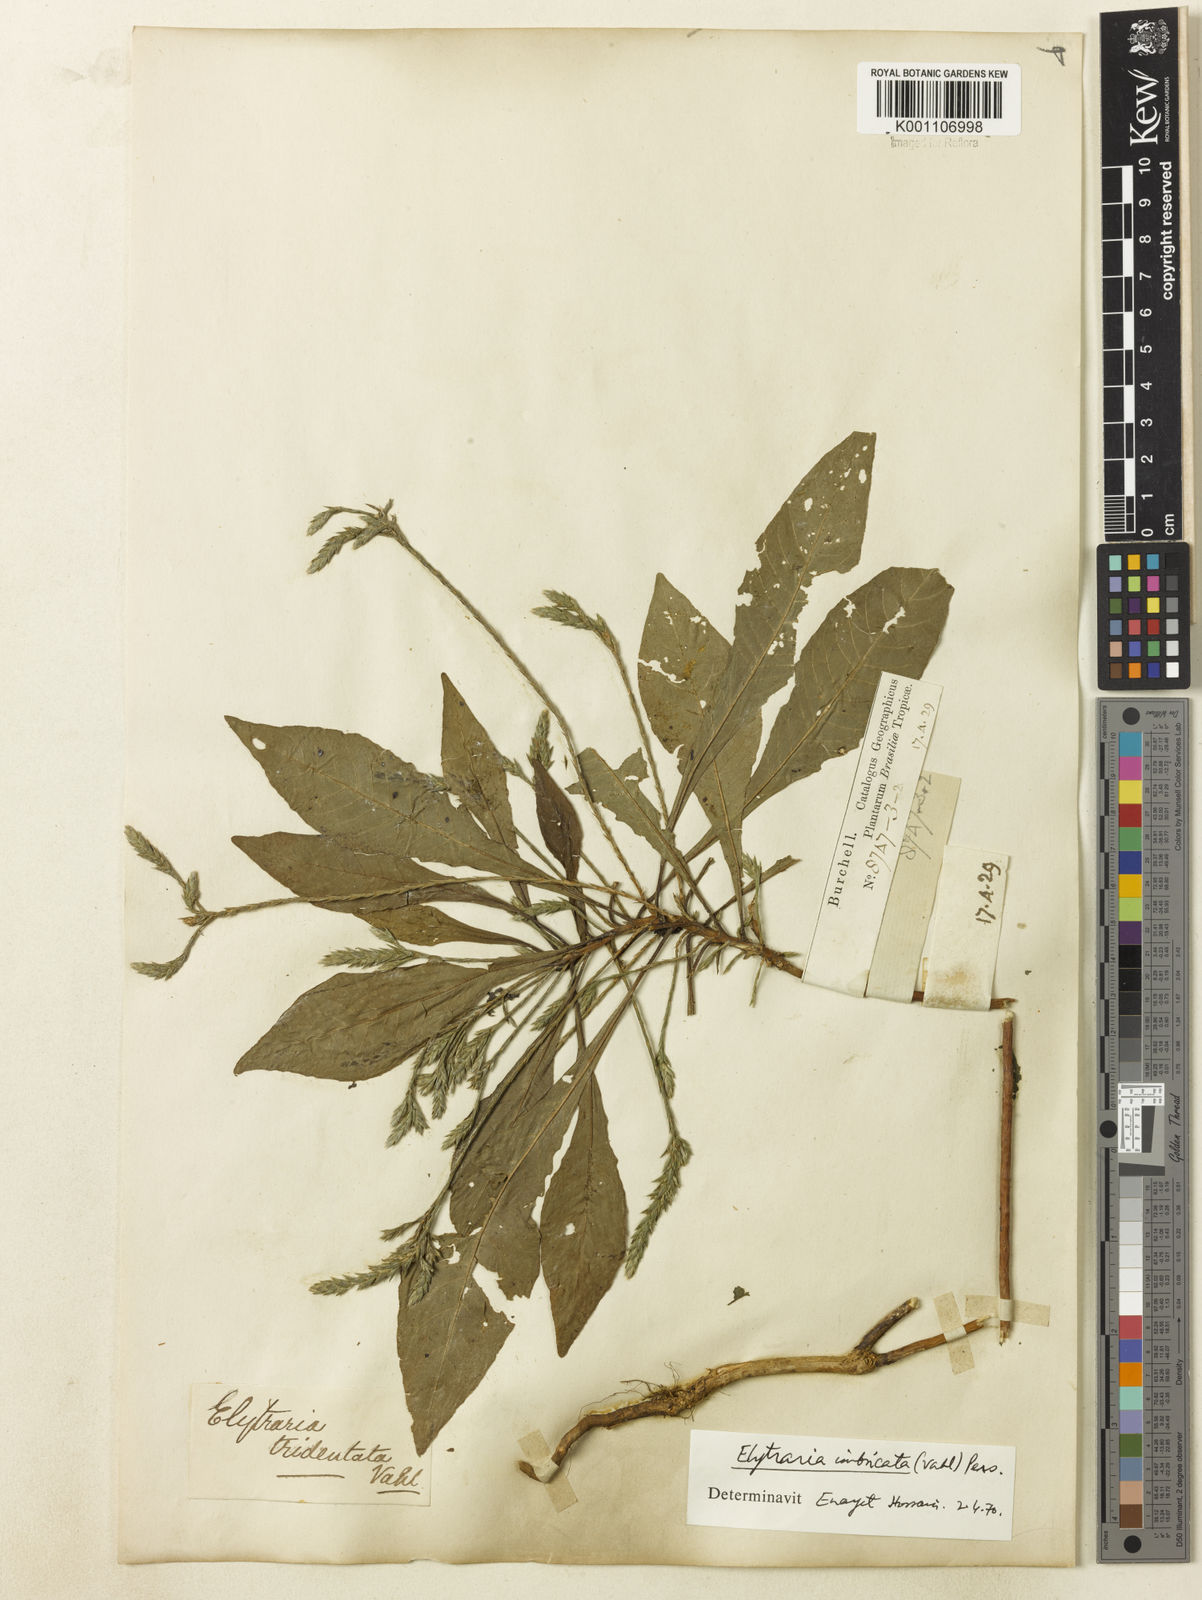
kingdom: Plantae
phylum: Tracheophyta
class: Magnoliopsida
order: Lamiales
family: Acanthaceae
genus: Elytraria
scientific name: Elytraria imbricata
